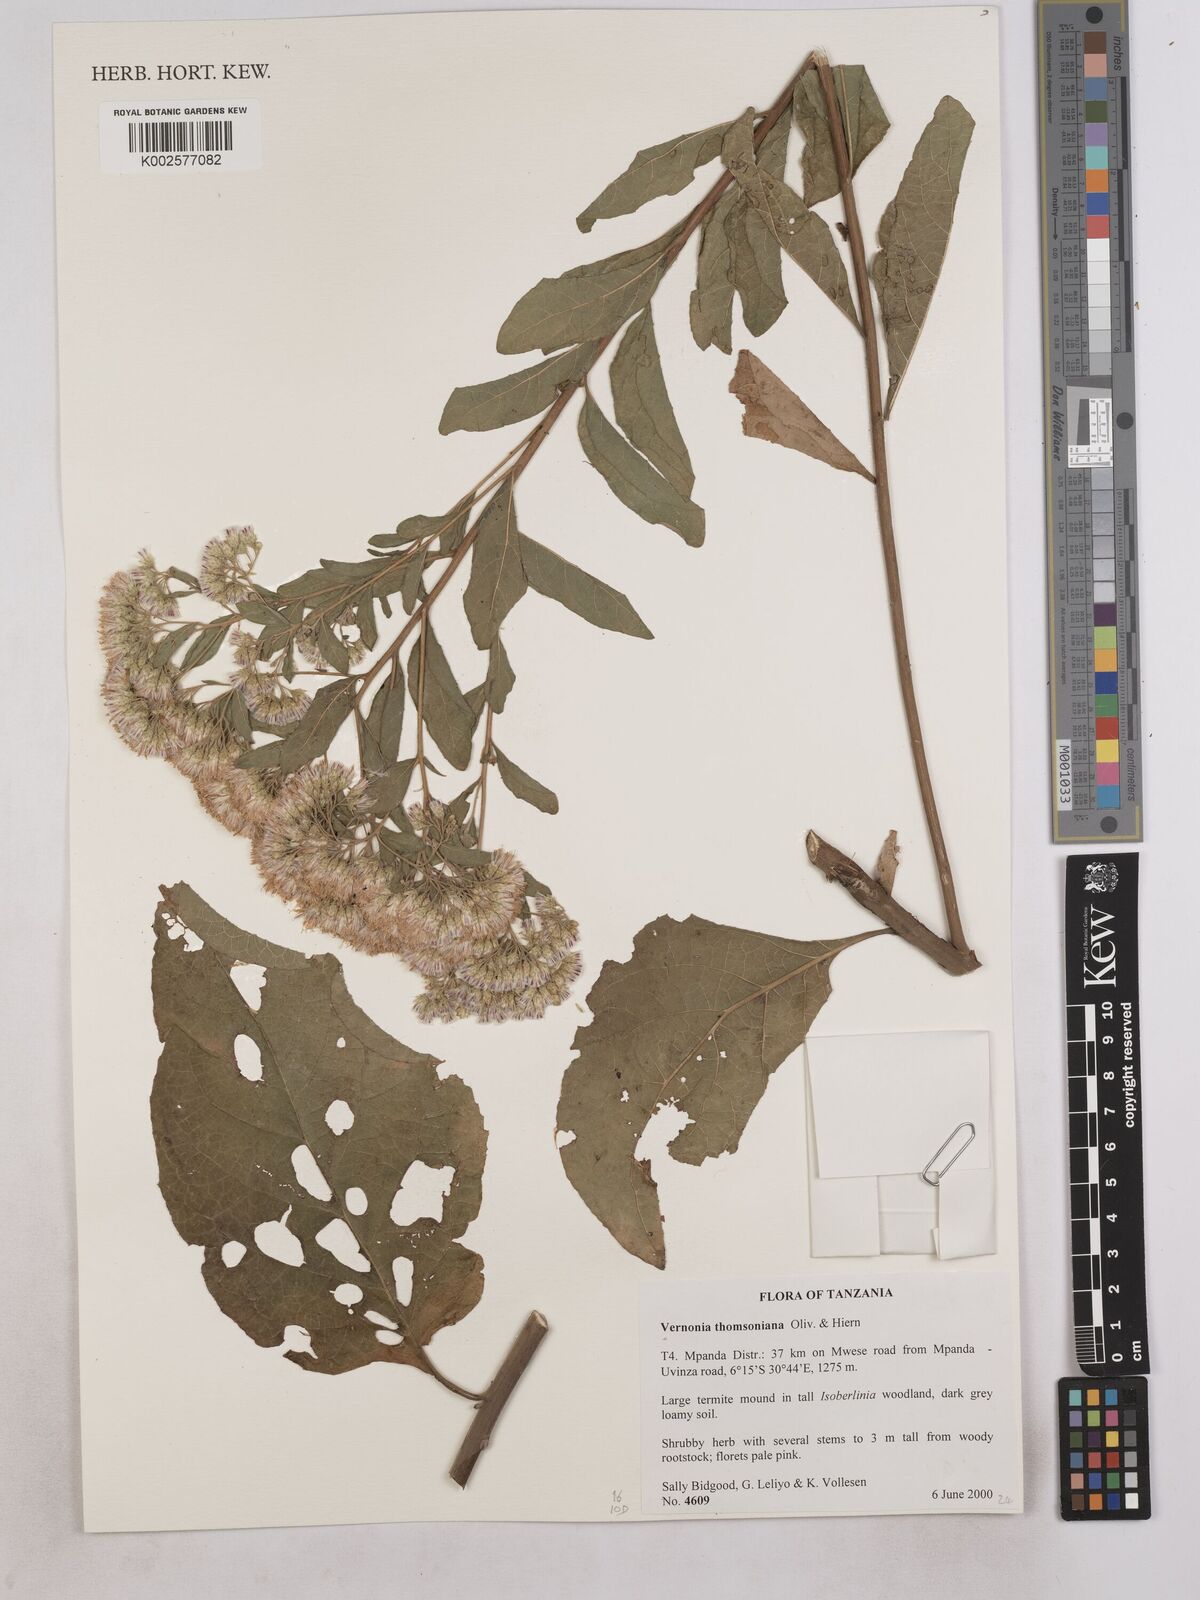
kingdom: Plantae
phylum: Tracheophyta
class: Magnoliopsida
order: Asterales
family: Asteraceae
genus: Gymnanthemum
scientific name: Gymnanthemum thomsonianum
